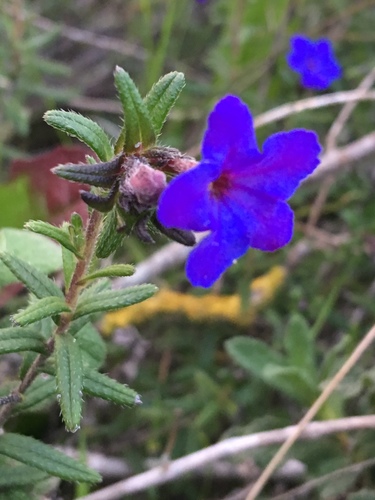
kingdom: Plantae
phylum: Tracheophyta
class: Magnoliopsida
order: Boraginales
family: Boraginaceae
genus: Glandora
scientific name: Glandora prostrata
